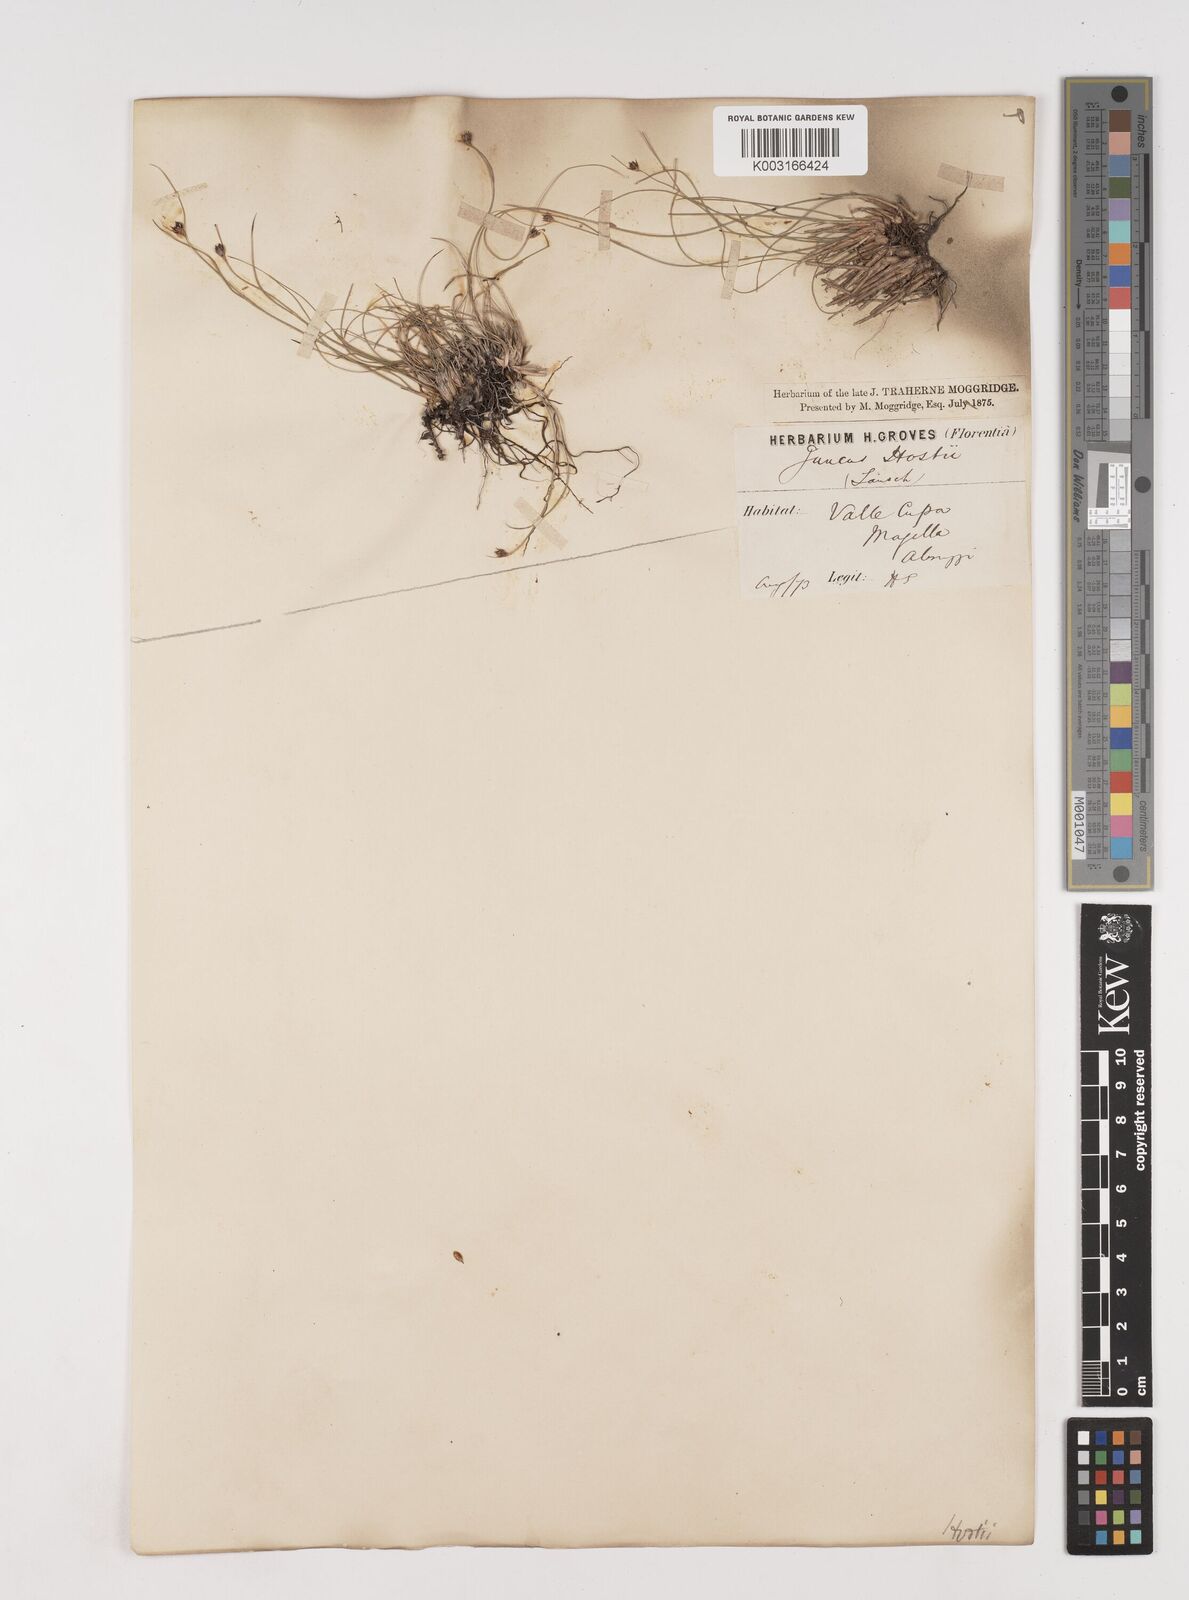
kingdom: Plantae
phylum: Tracheophyta
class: Liliopsida
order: Poales
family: Juncaceae
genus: Oreojuncus
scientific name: Oreojuncus trifidus
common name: Highland rush
